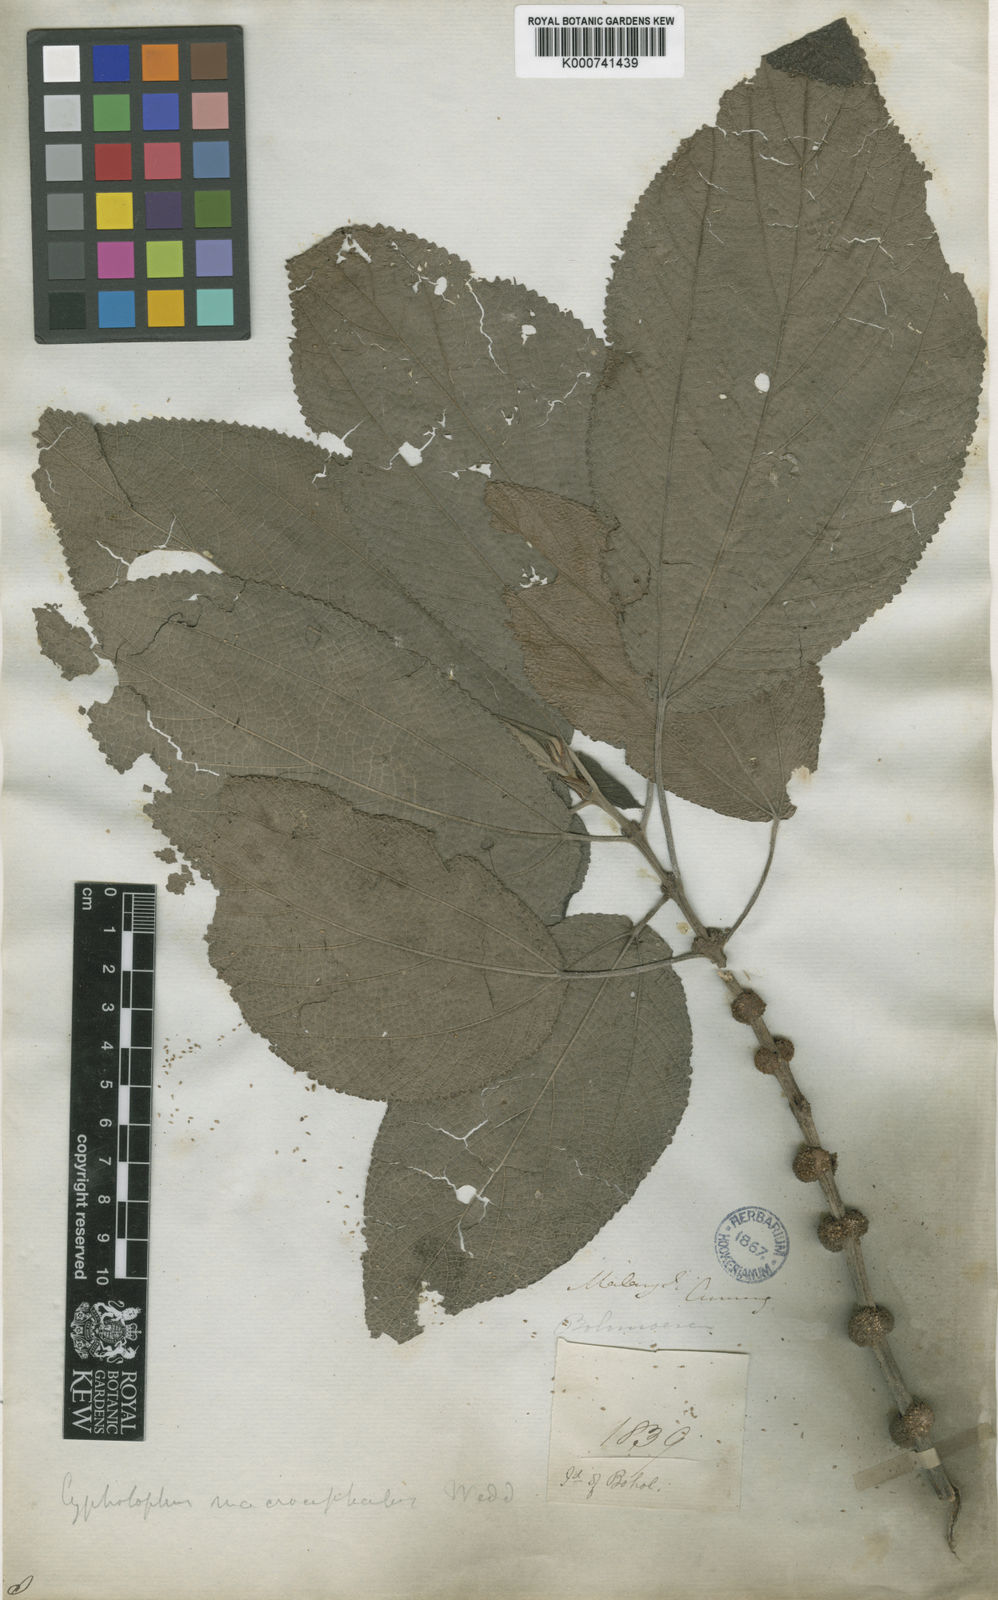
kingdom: Plantae
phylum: Tracheophyta
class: Magnoliopsida
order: Rosales
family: Urticaceae
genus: Cypholophus
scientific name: Cypholophus macrocephalus
